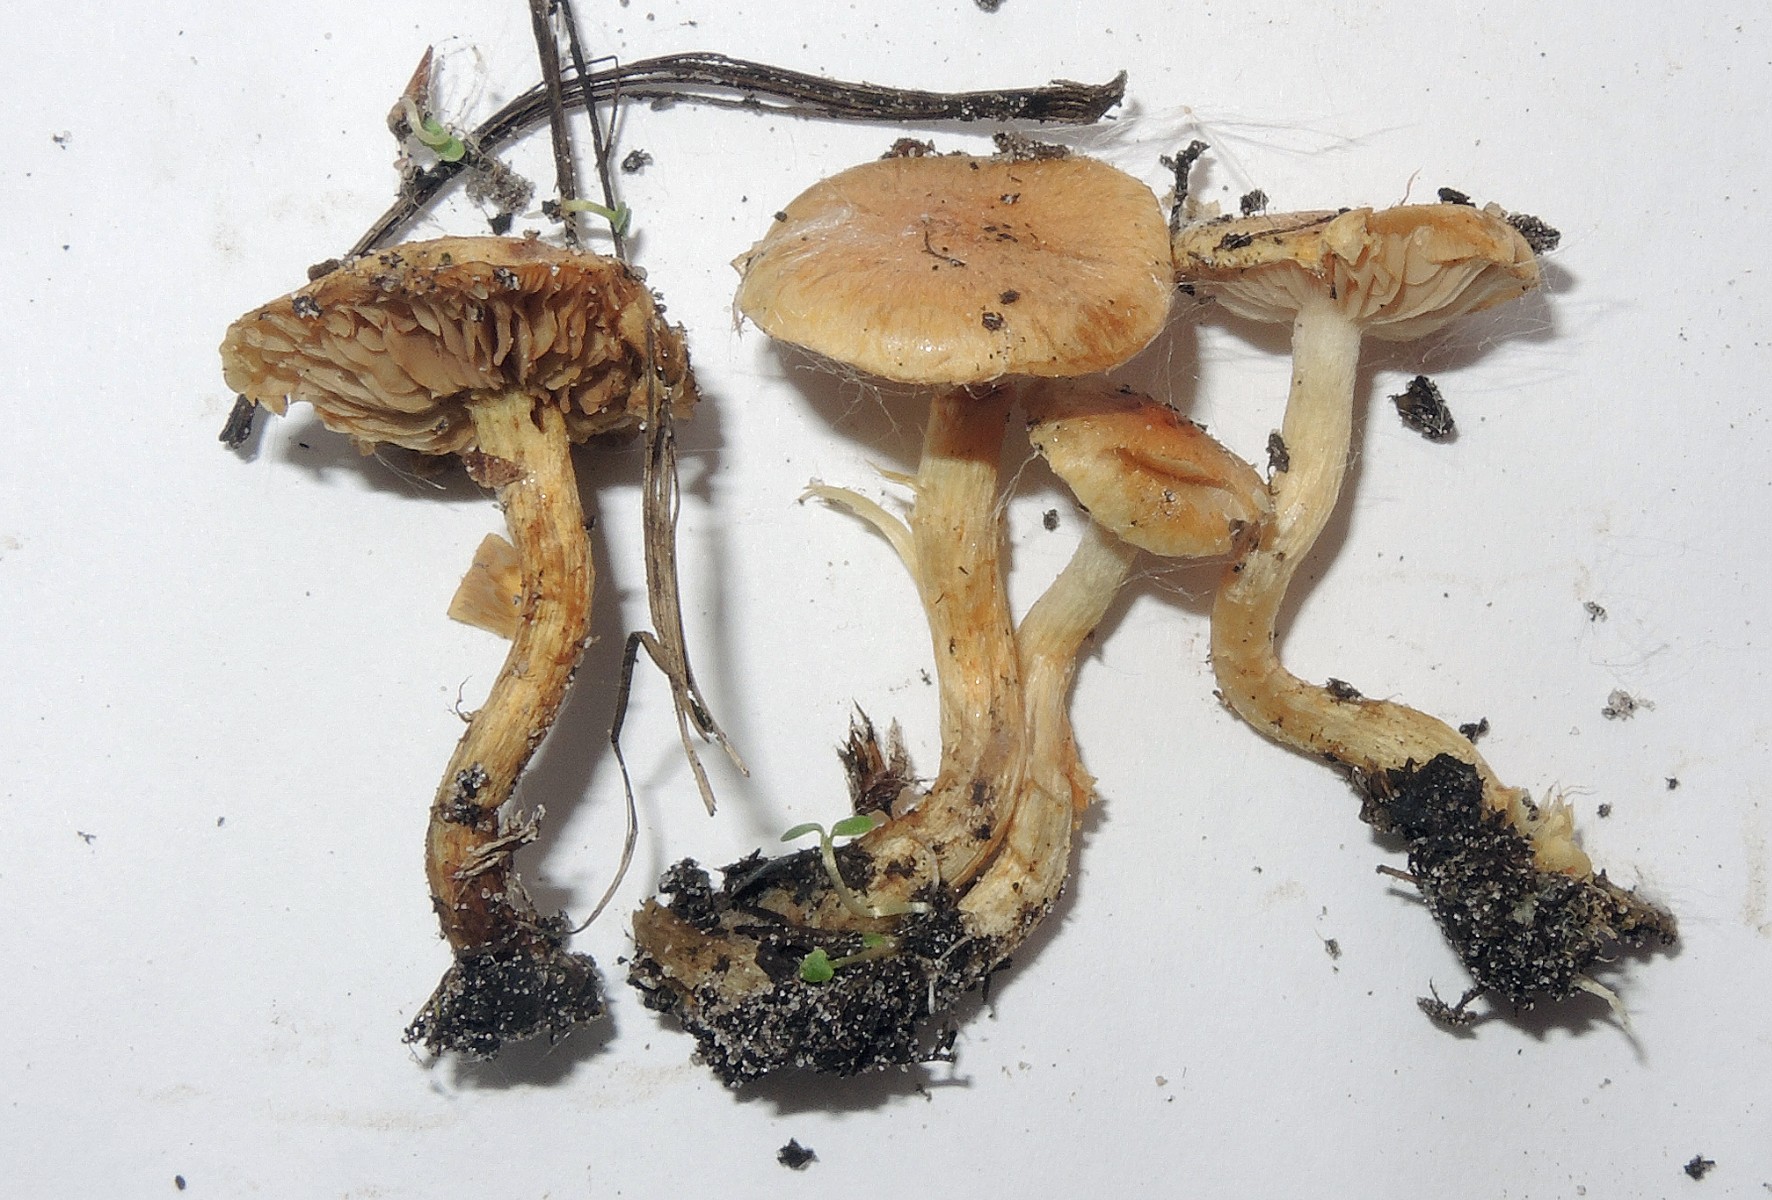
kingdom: Fungi
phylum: Basidiomycota
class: Agaricomycetes
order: Agaricales
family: Strophariaceae
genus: Pholiota
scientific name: Pholiota conissans
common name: pile-skælhat
